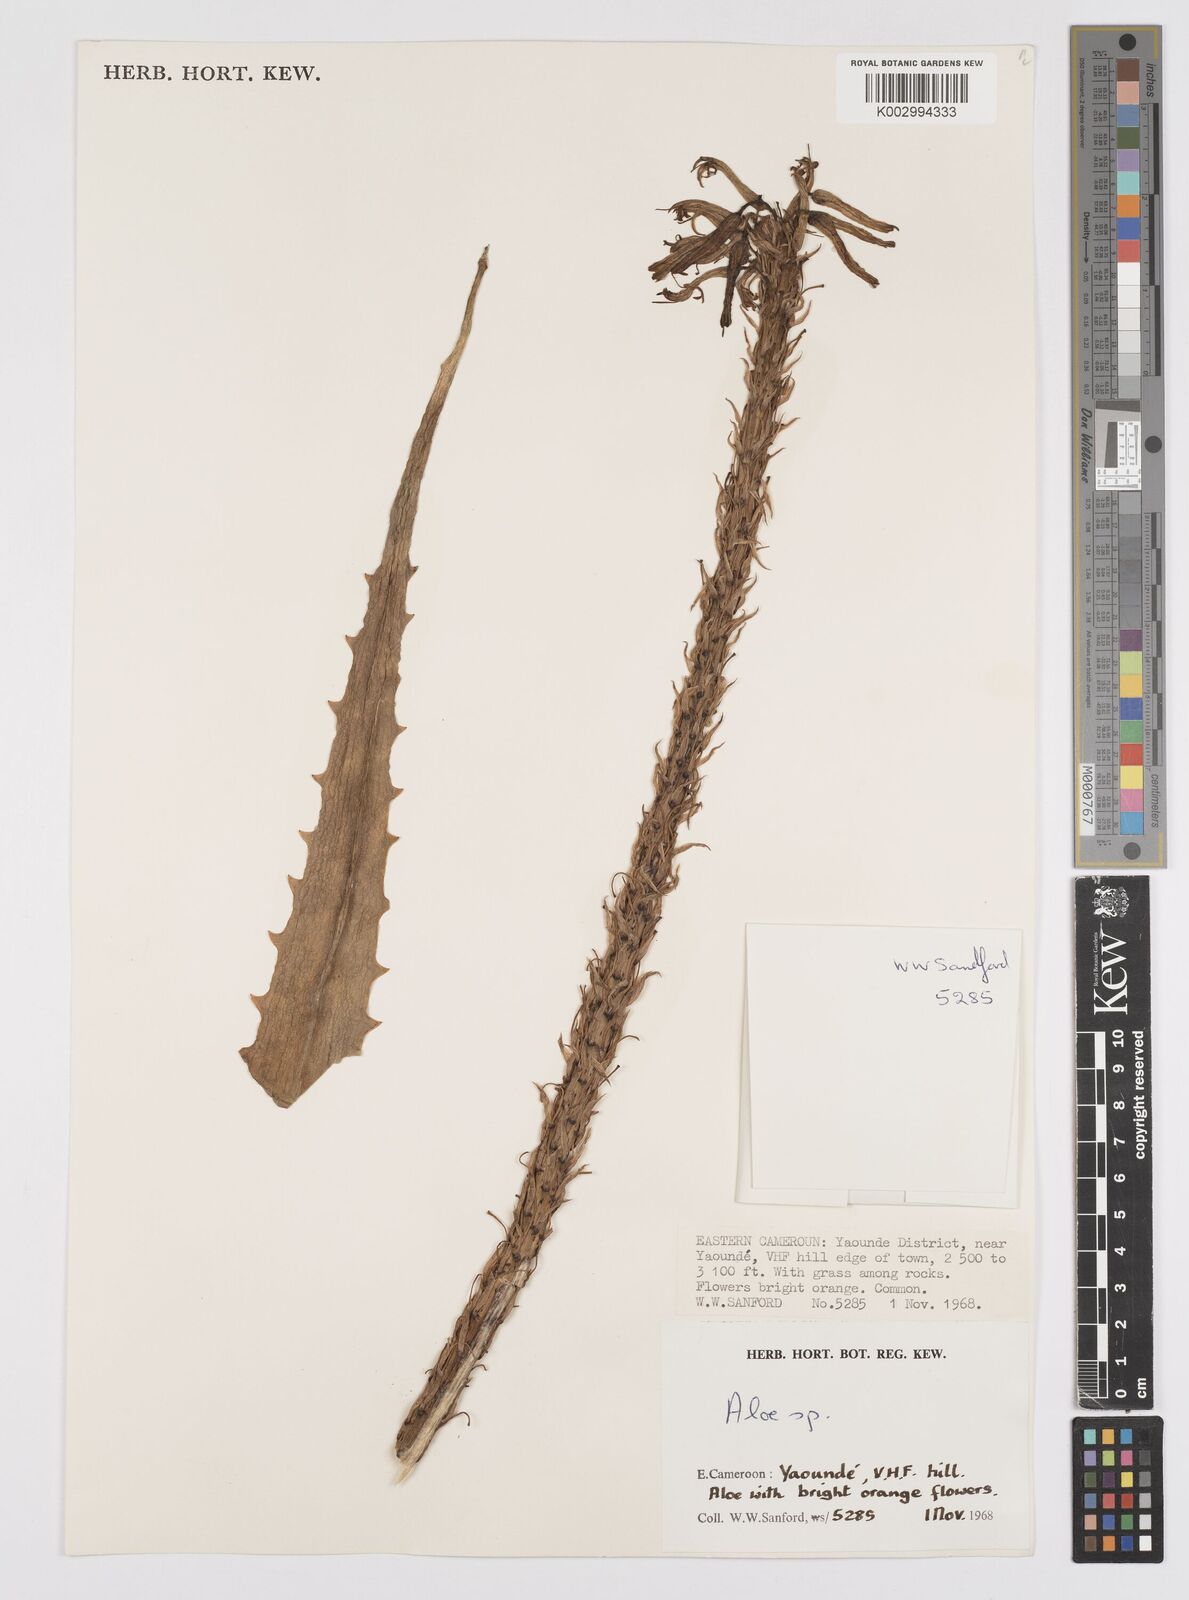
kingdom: Plantae
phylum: Tracheophyta
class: Liliopsida
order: Asparagales
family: Asphodelaceae
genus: Aloe
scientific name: Aloe seretii
